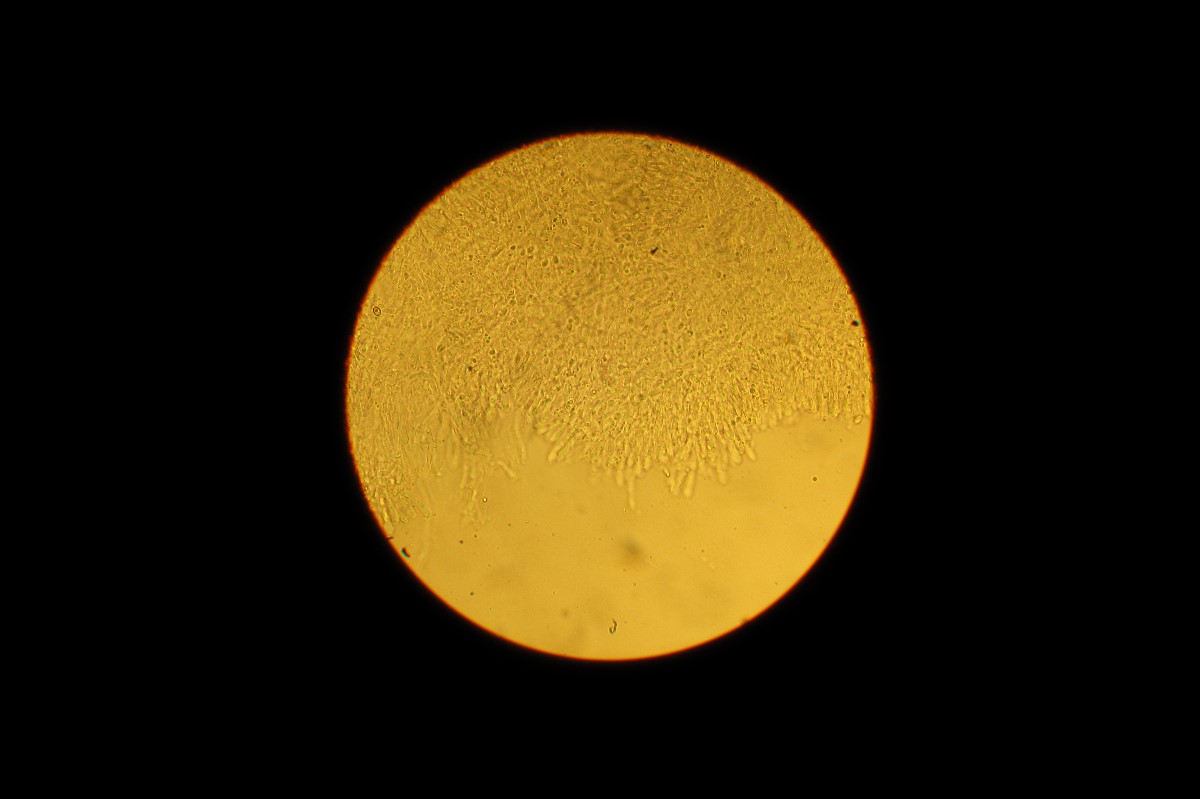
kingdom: Fungi
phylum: Basidiomycota
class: Agaricomycetes
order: Agaricales
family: Tricholomataceae
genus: Clitocybe
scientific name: Clitocybe rivulosa
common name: eng-tragthat
